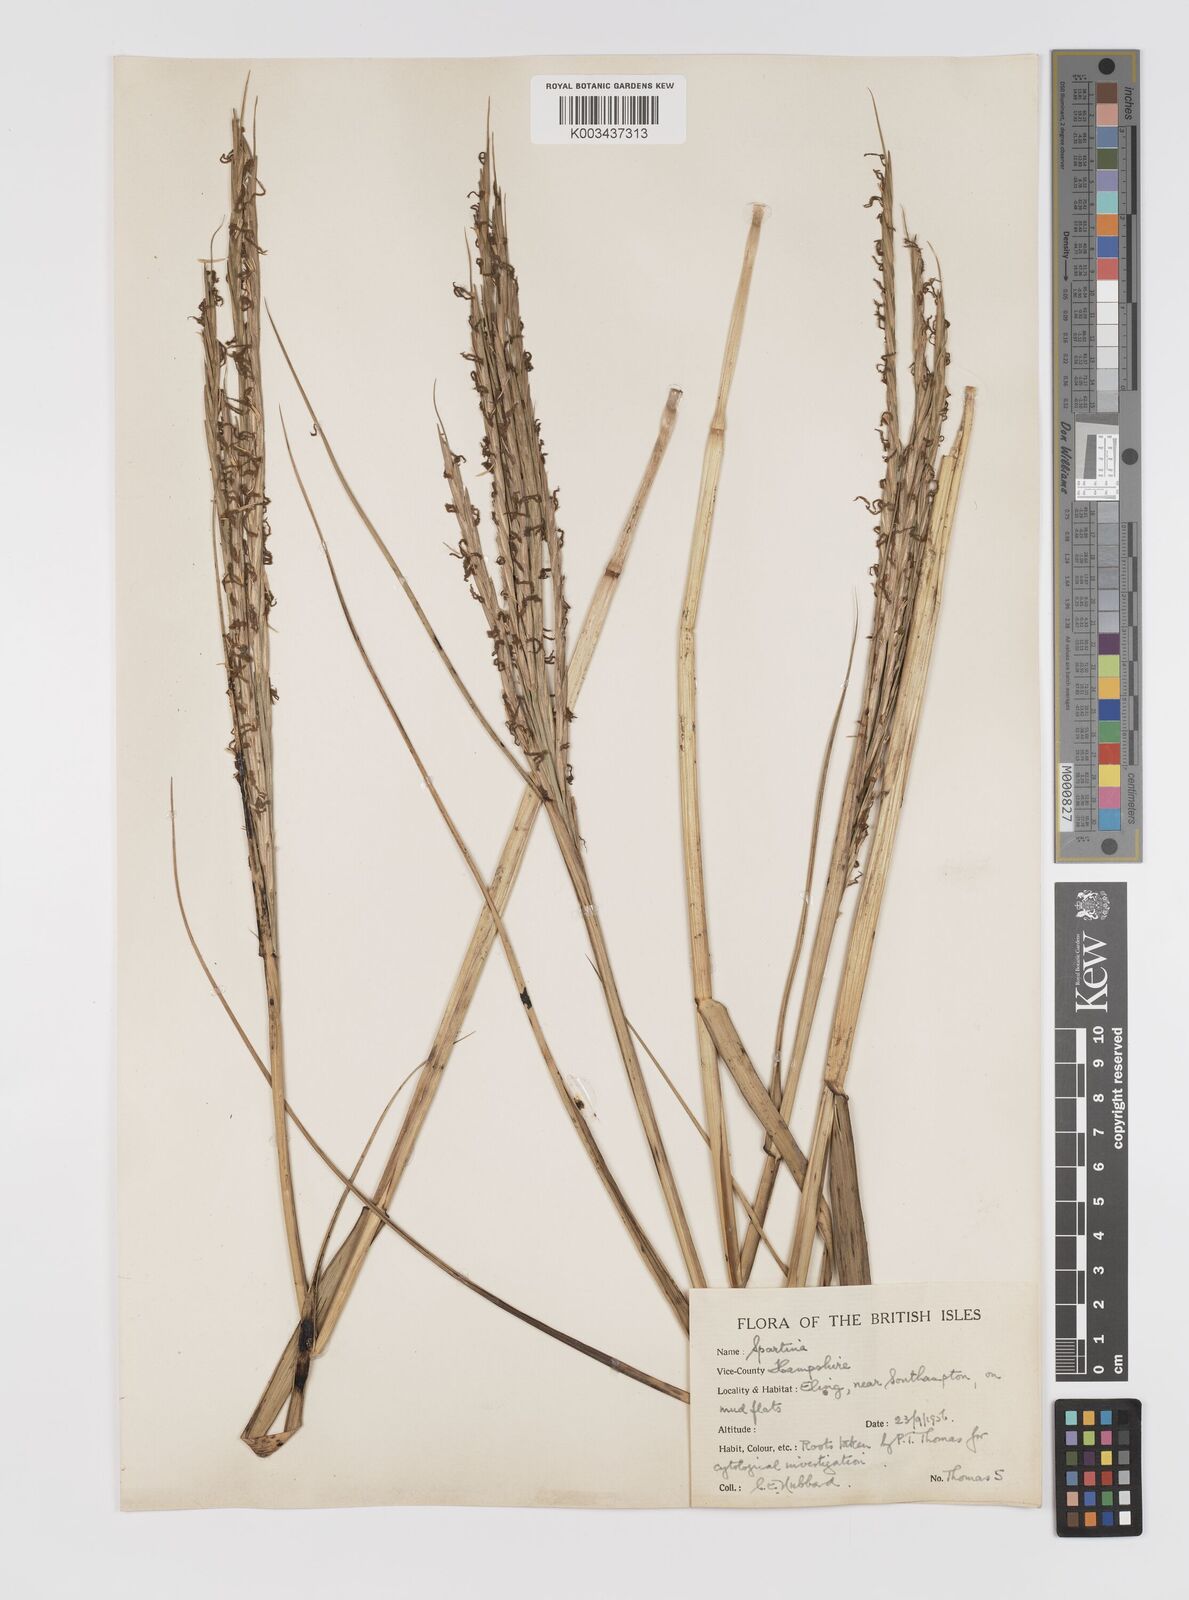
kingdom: Plantae
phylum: Tracheophyta
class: Liliopsida
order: Poales
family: Poaceae
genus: Sporobolus
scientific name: Sporobolus townsendii
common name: Townsend's cordgrass
